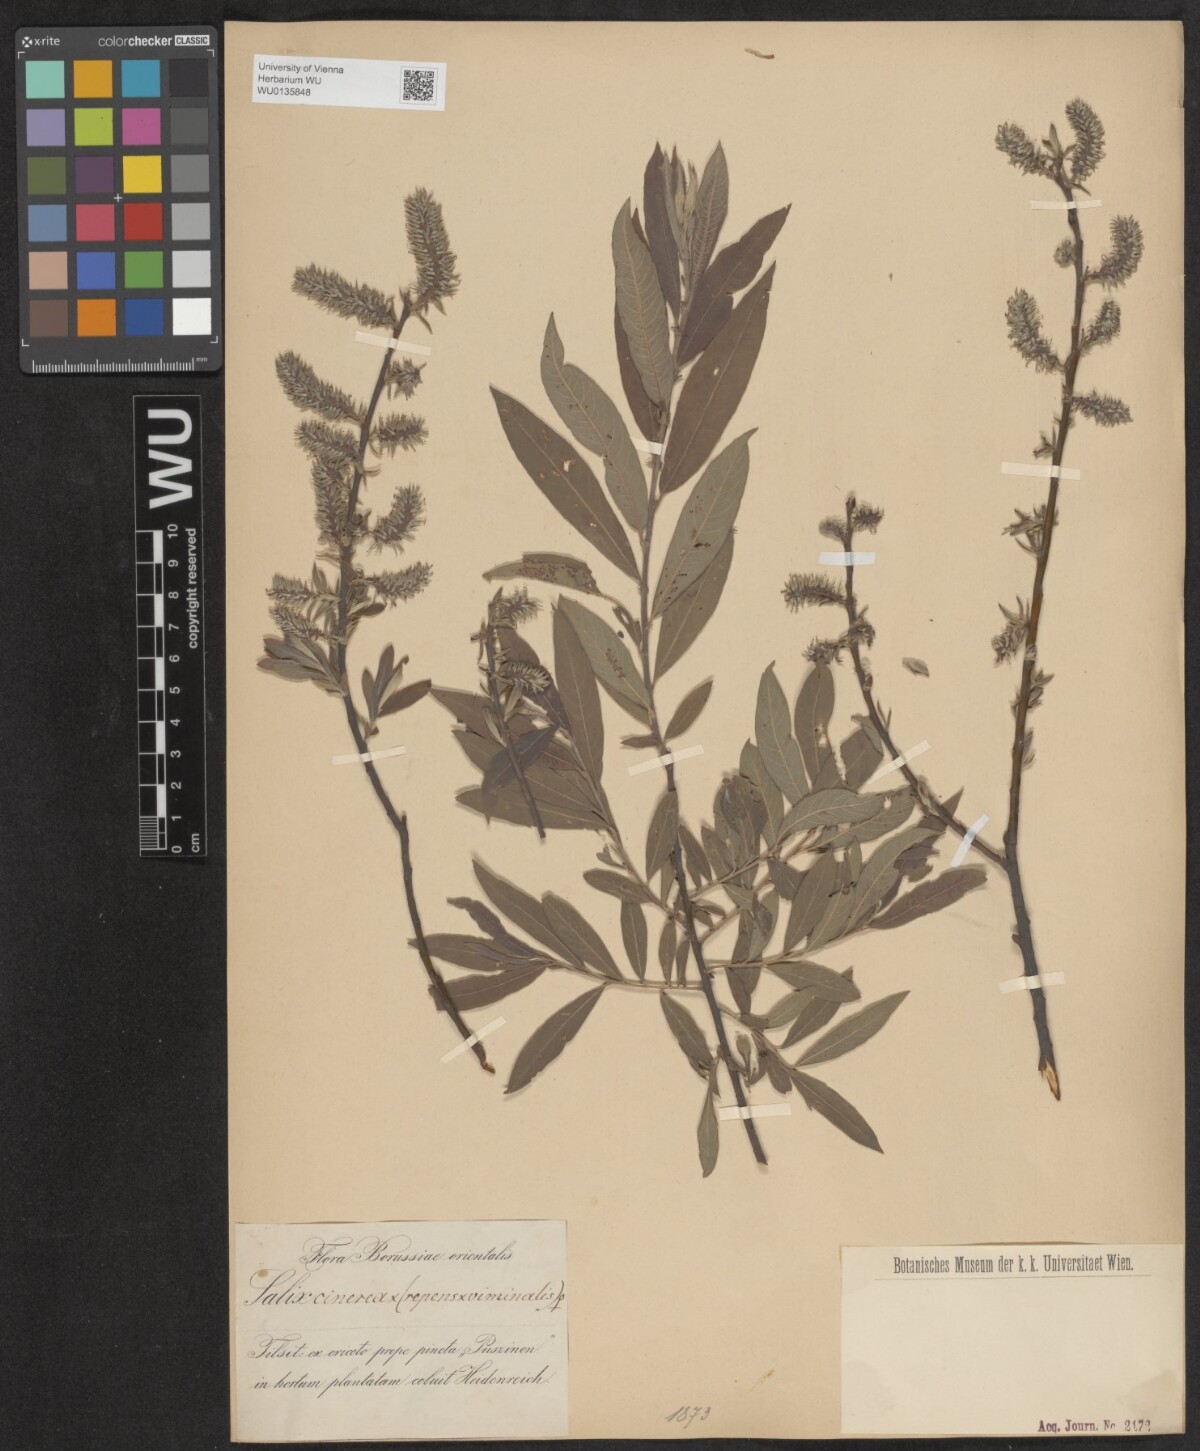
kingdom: Plantae
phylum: Tracheophyta
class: Magnoliopsida
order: Malpighiales
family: Salicaceae
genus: Salix
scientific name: Salix
